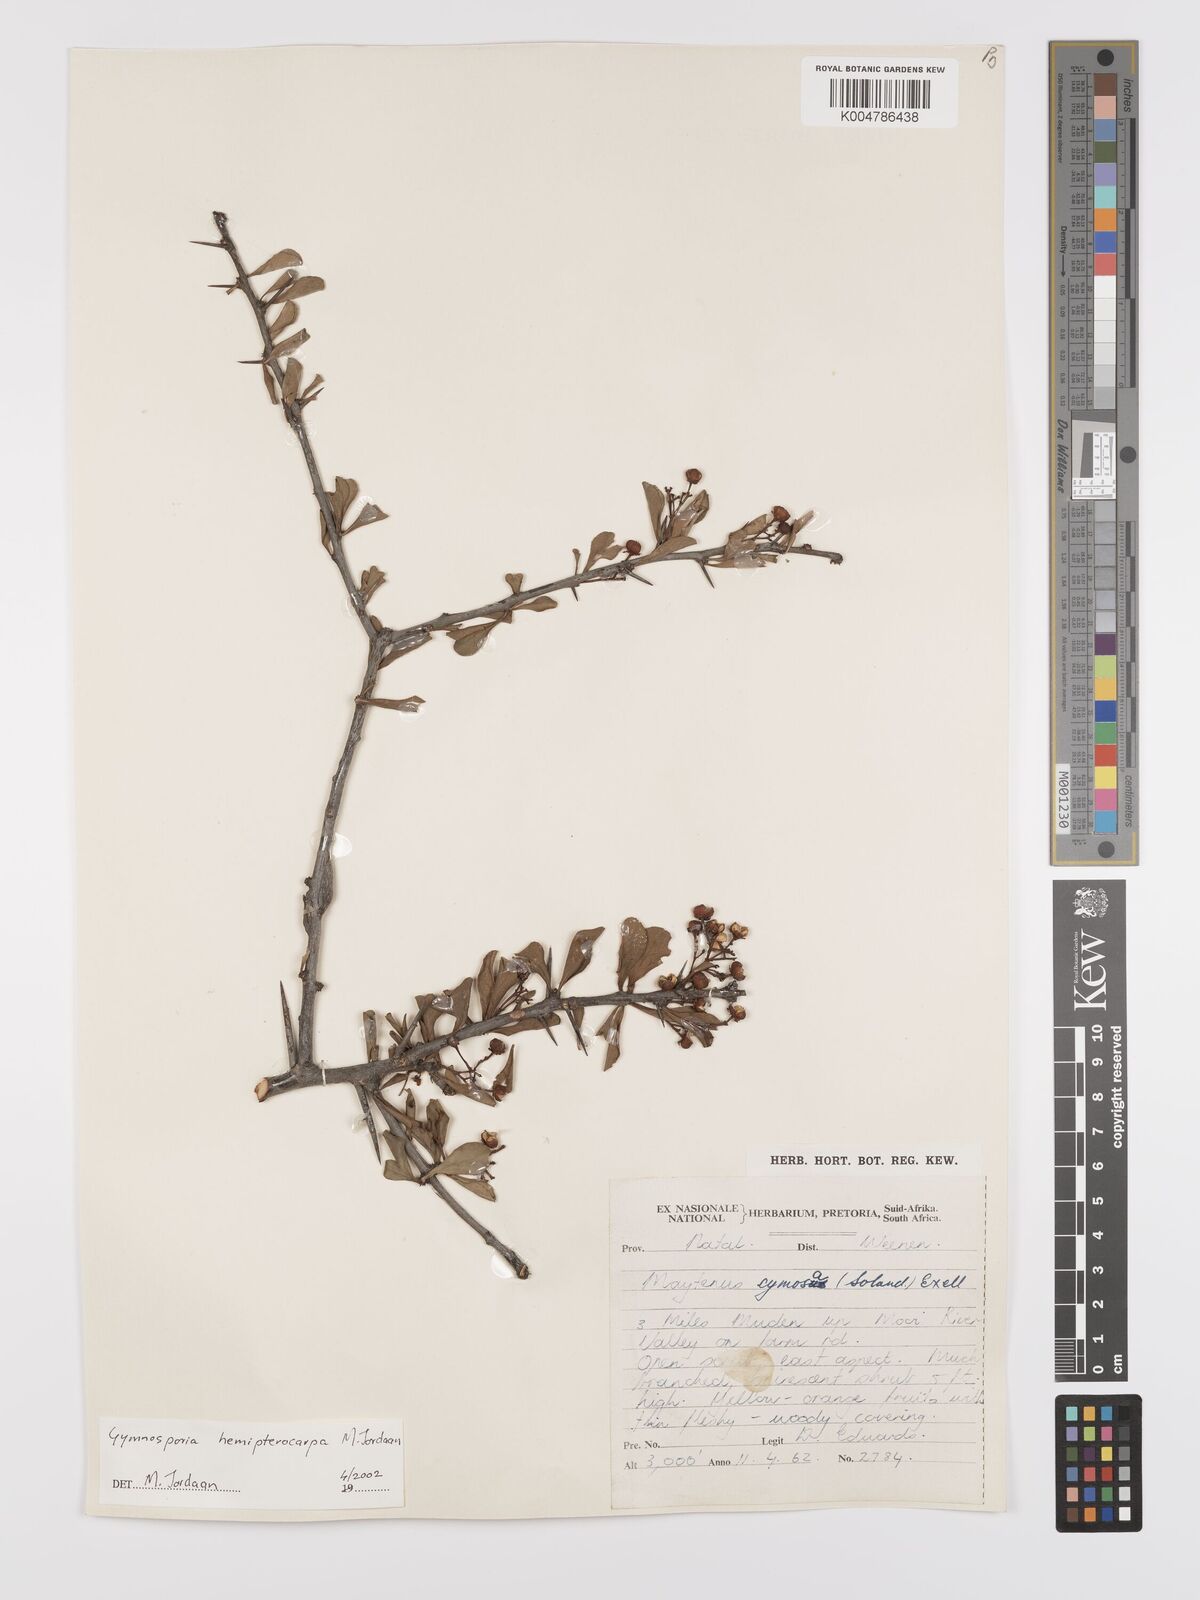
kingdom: Plantae
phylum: Tracheophyta
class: Magnoliopsida
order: Celastrales
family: Celastraceae
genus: Gymnosporia
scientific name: Gymnosporia hemipterocarpa
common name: Valley spikethorn
